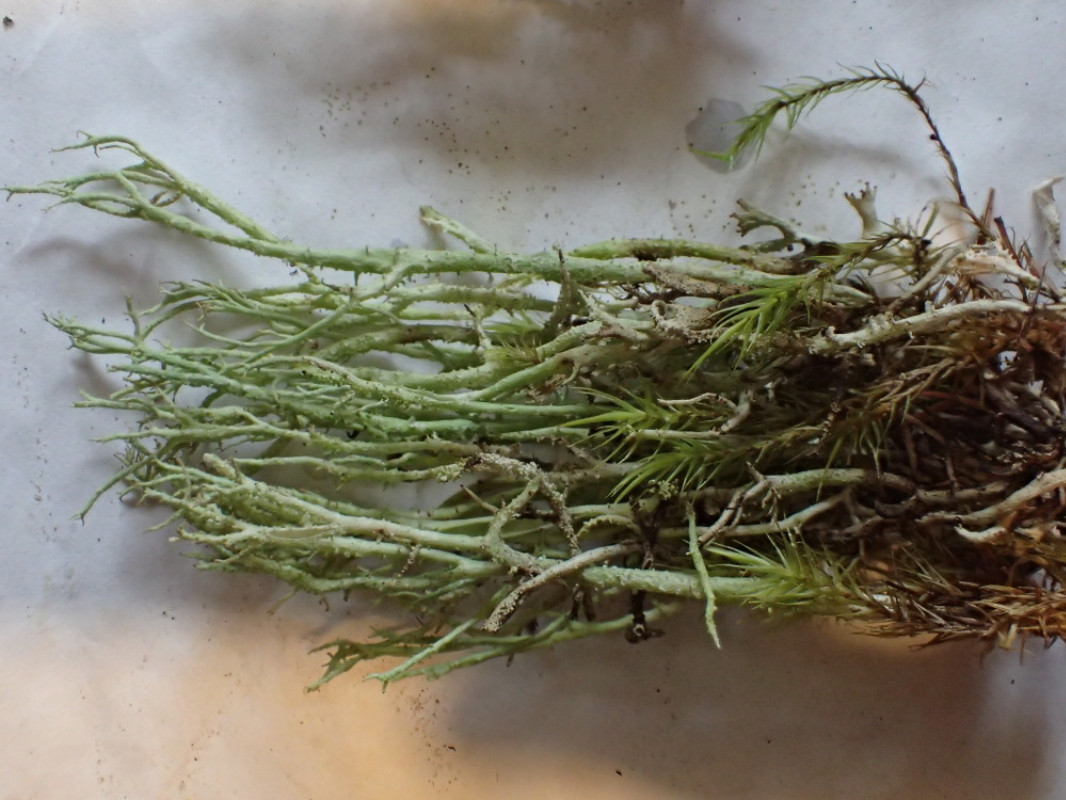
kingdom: Fungi
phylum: Ascomycota
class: Lecanoromycetes
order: Lecanorales
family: Cladoniaceae
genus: Cladonia
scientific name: Cladonia scabriuscula
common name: ru bægerlav
